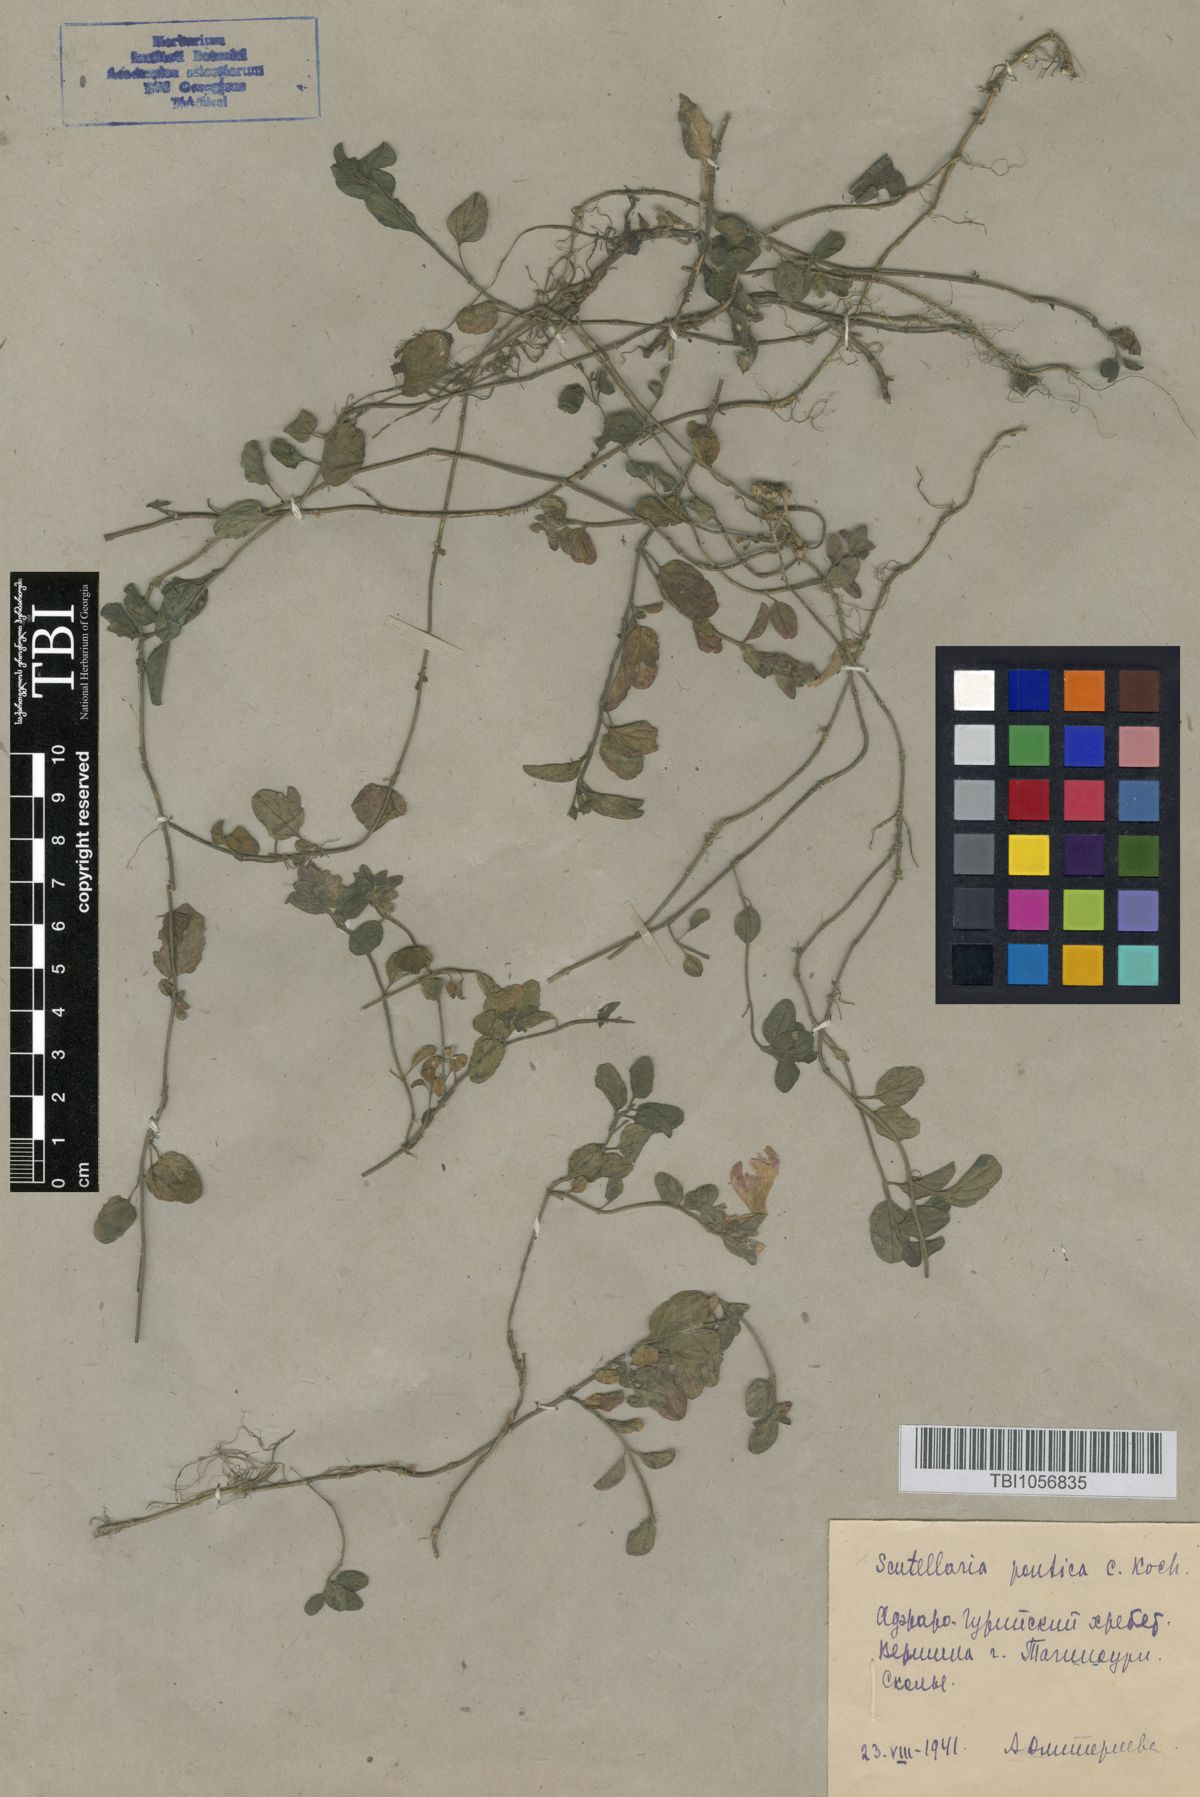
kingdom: Plantae
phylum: Tracheophyta
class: Magnoliopsida
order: Lamiales
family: Lamiaceae
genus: Scutellaria
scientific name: Scutellaria pontica
